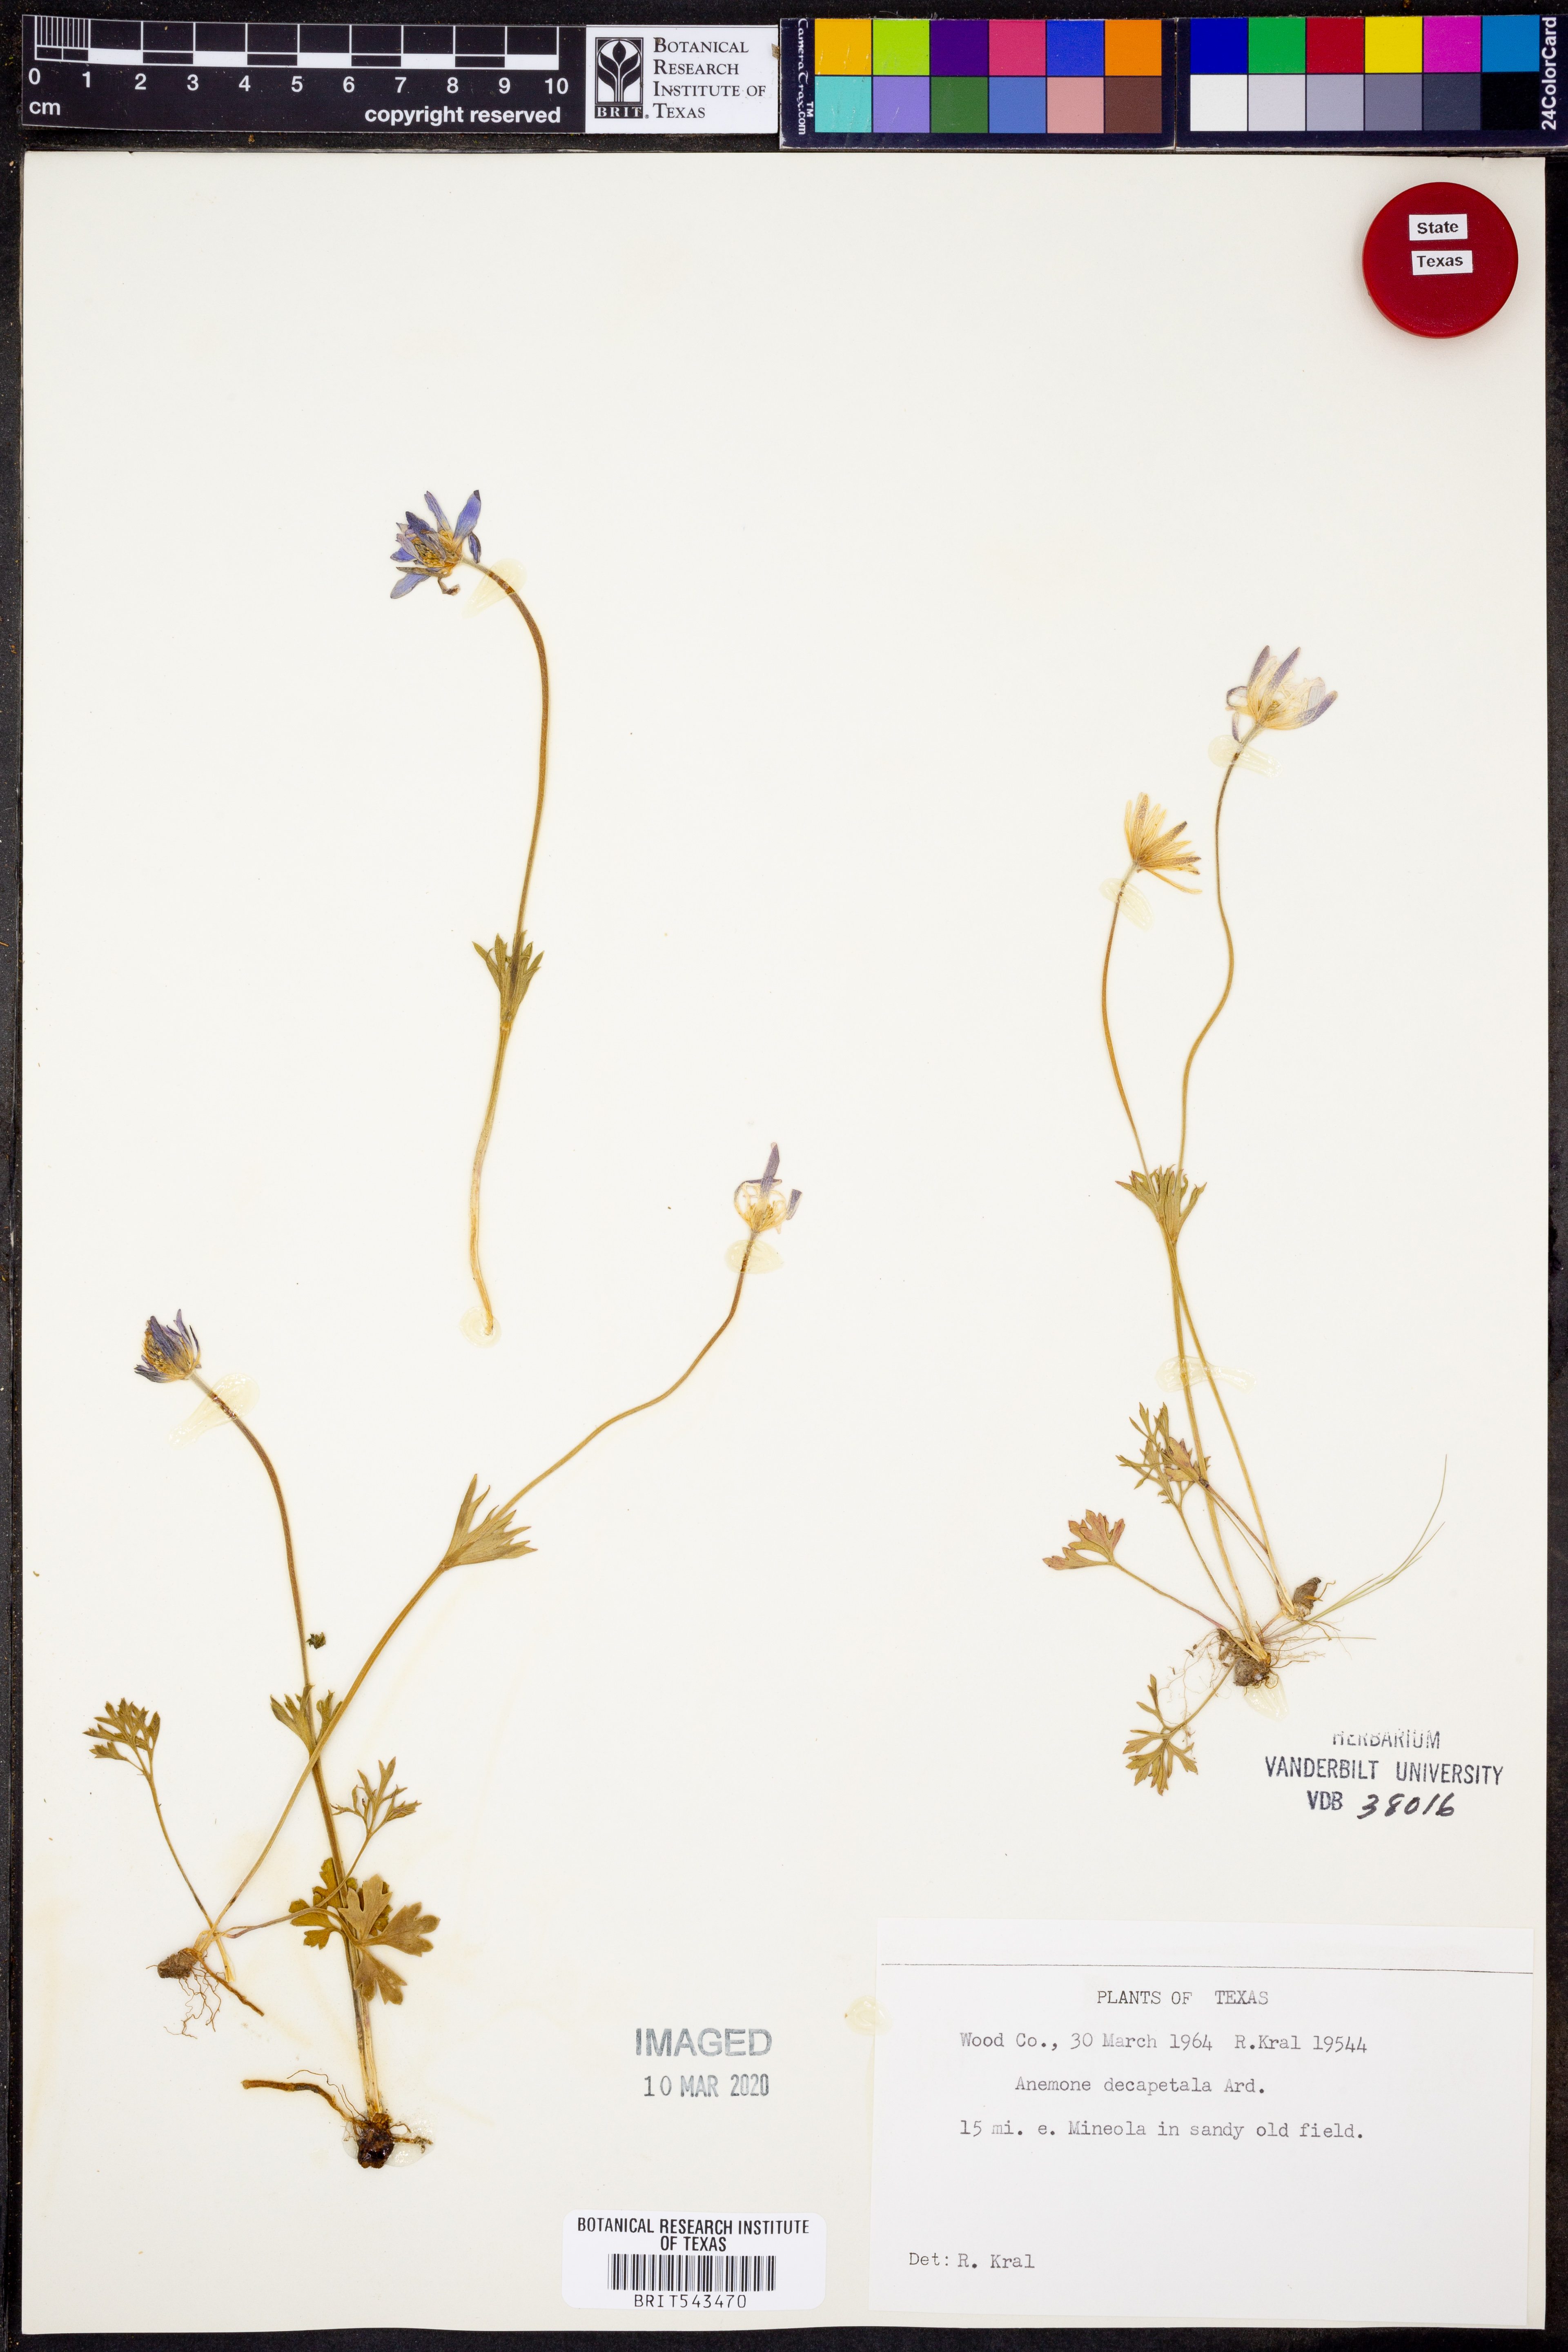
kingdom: Plantae
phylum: Tracheophyta
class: Magnoliopsida
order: Ranunculales
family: Ranunculaceae
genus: Anemone
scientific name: Anemone decapetala
